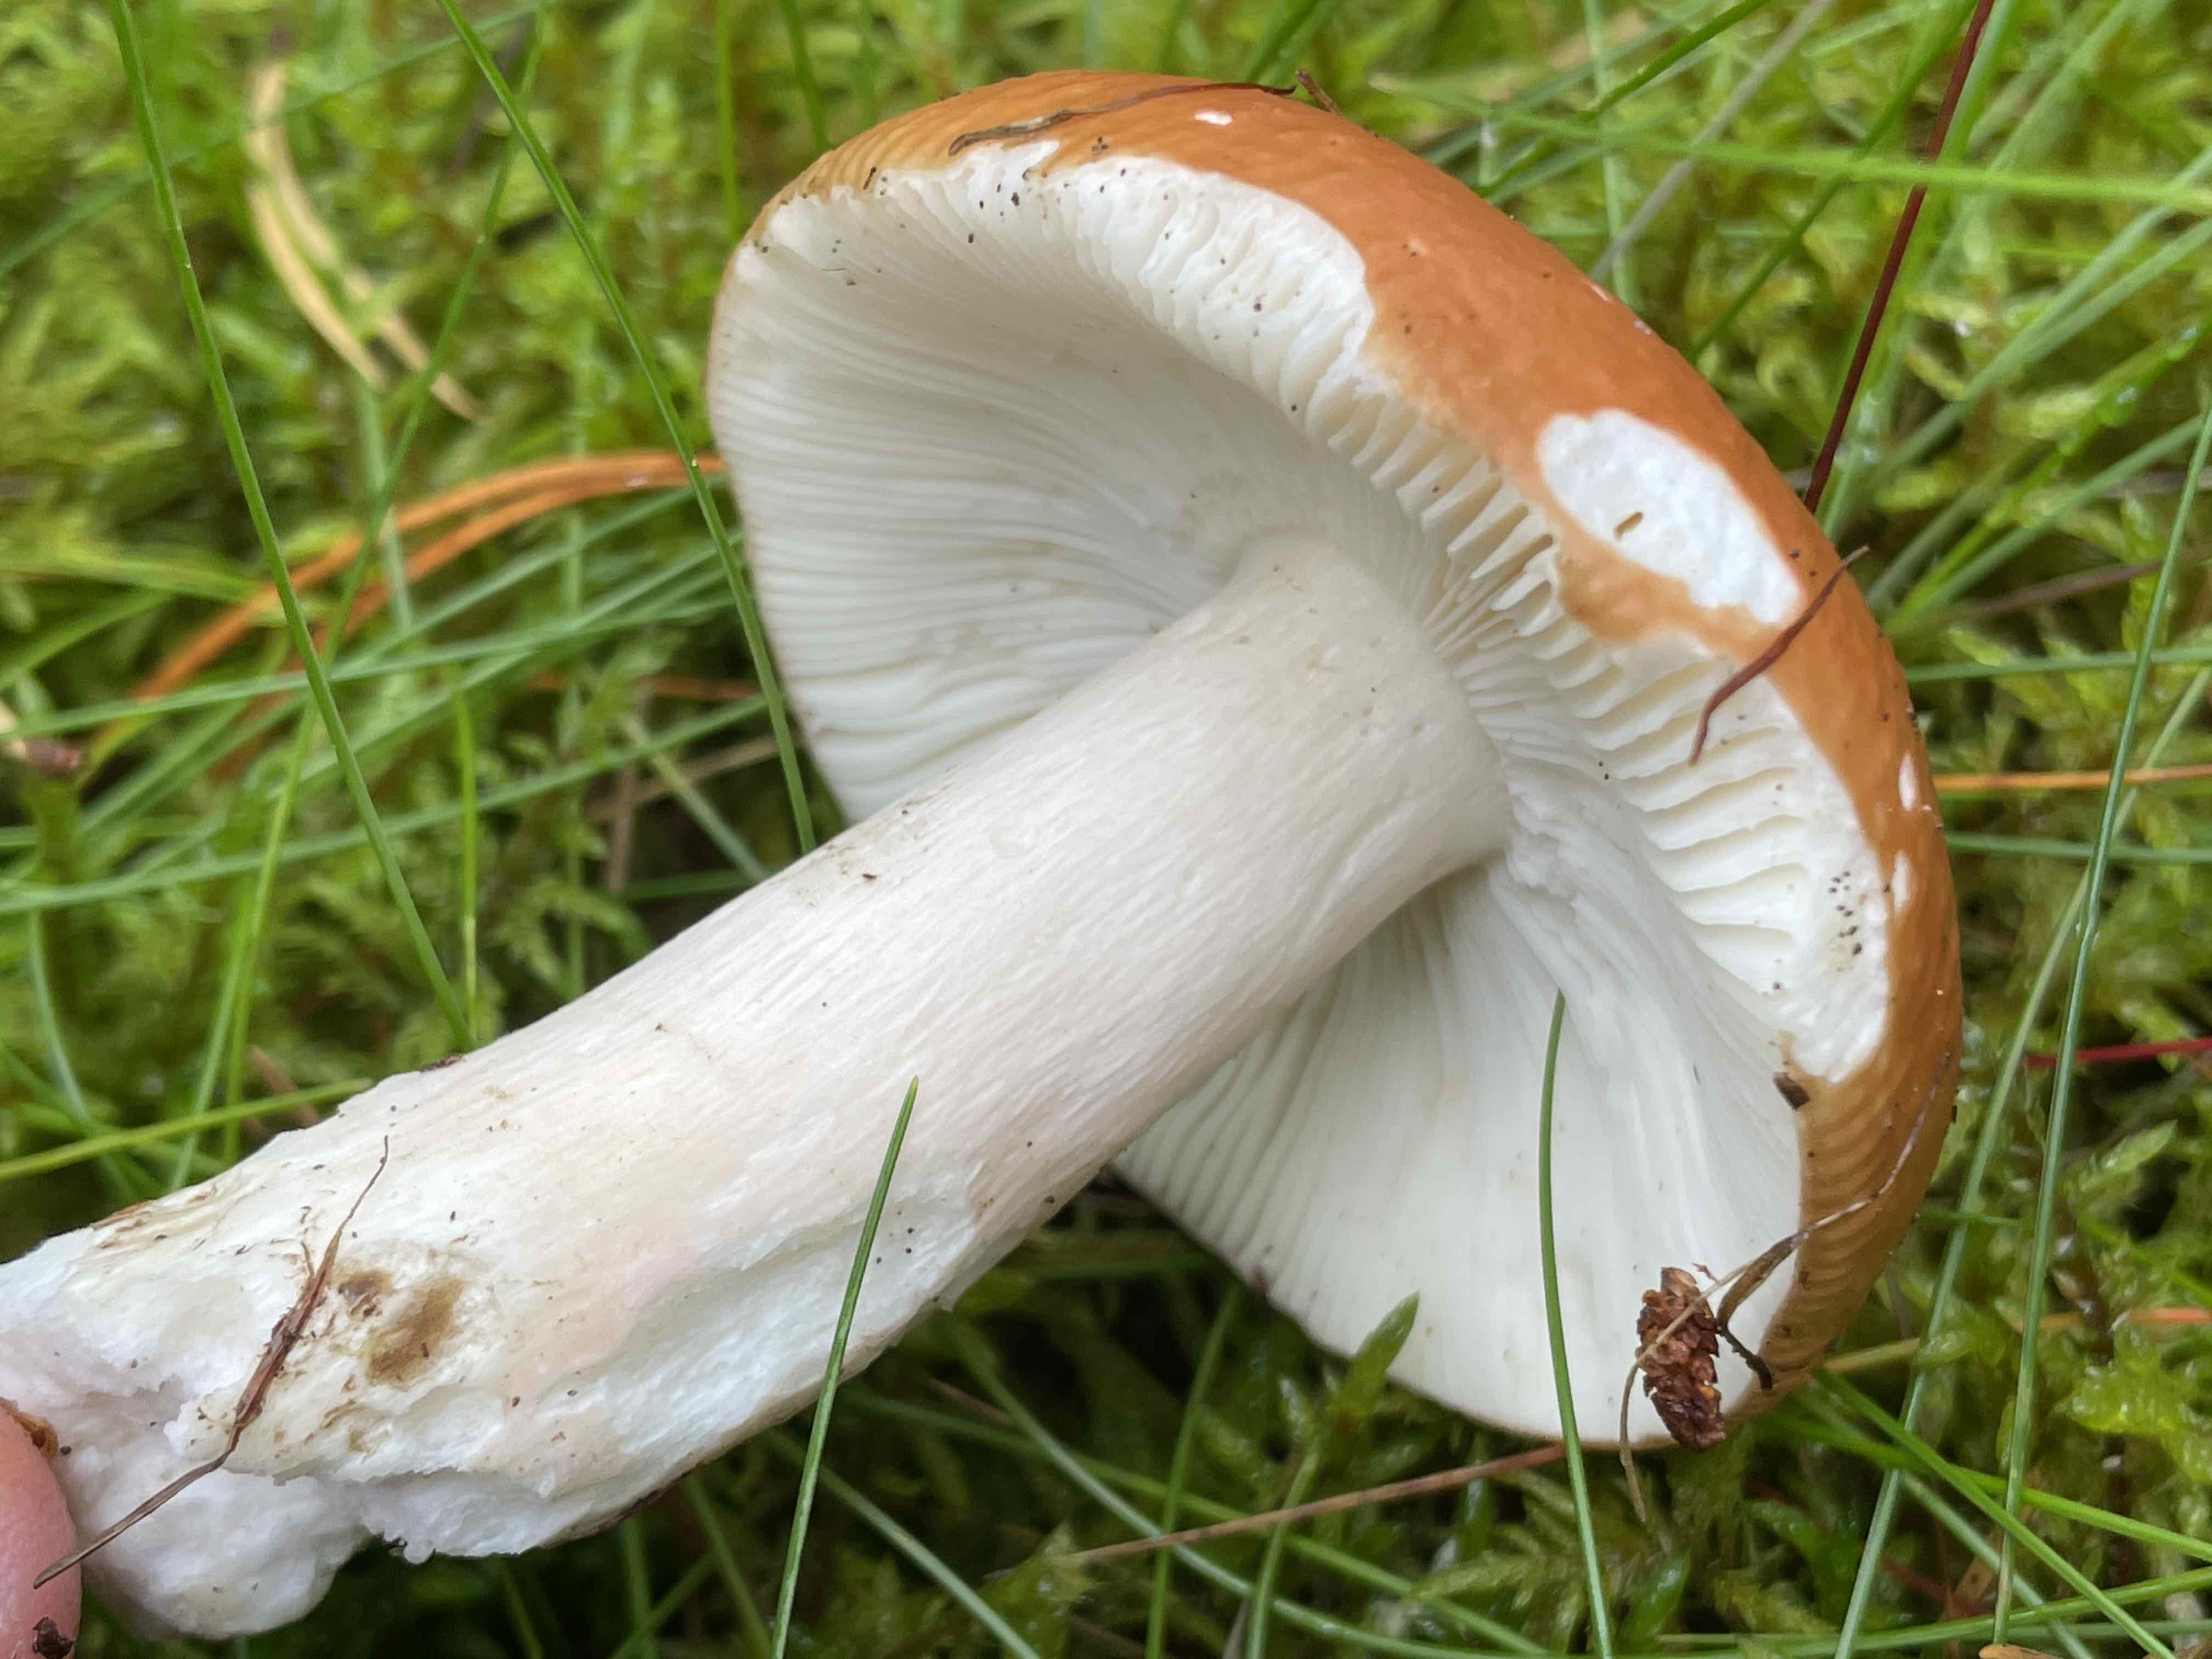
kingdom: Fungi
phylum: Basidiomycota
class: Agaricomycetes
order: Russulales
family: Russulaceae
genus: Russula
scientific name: Russula decolorans
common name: afblegende skørhat
